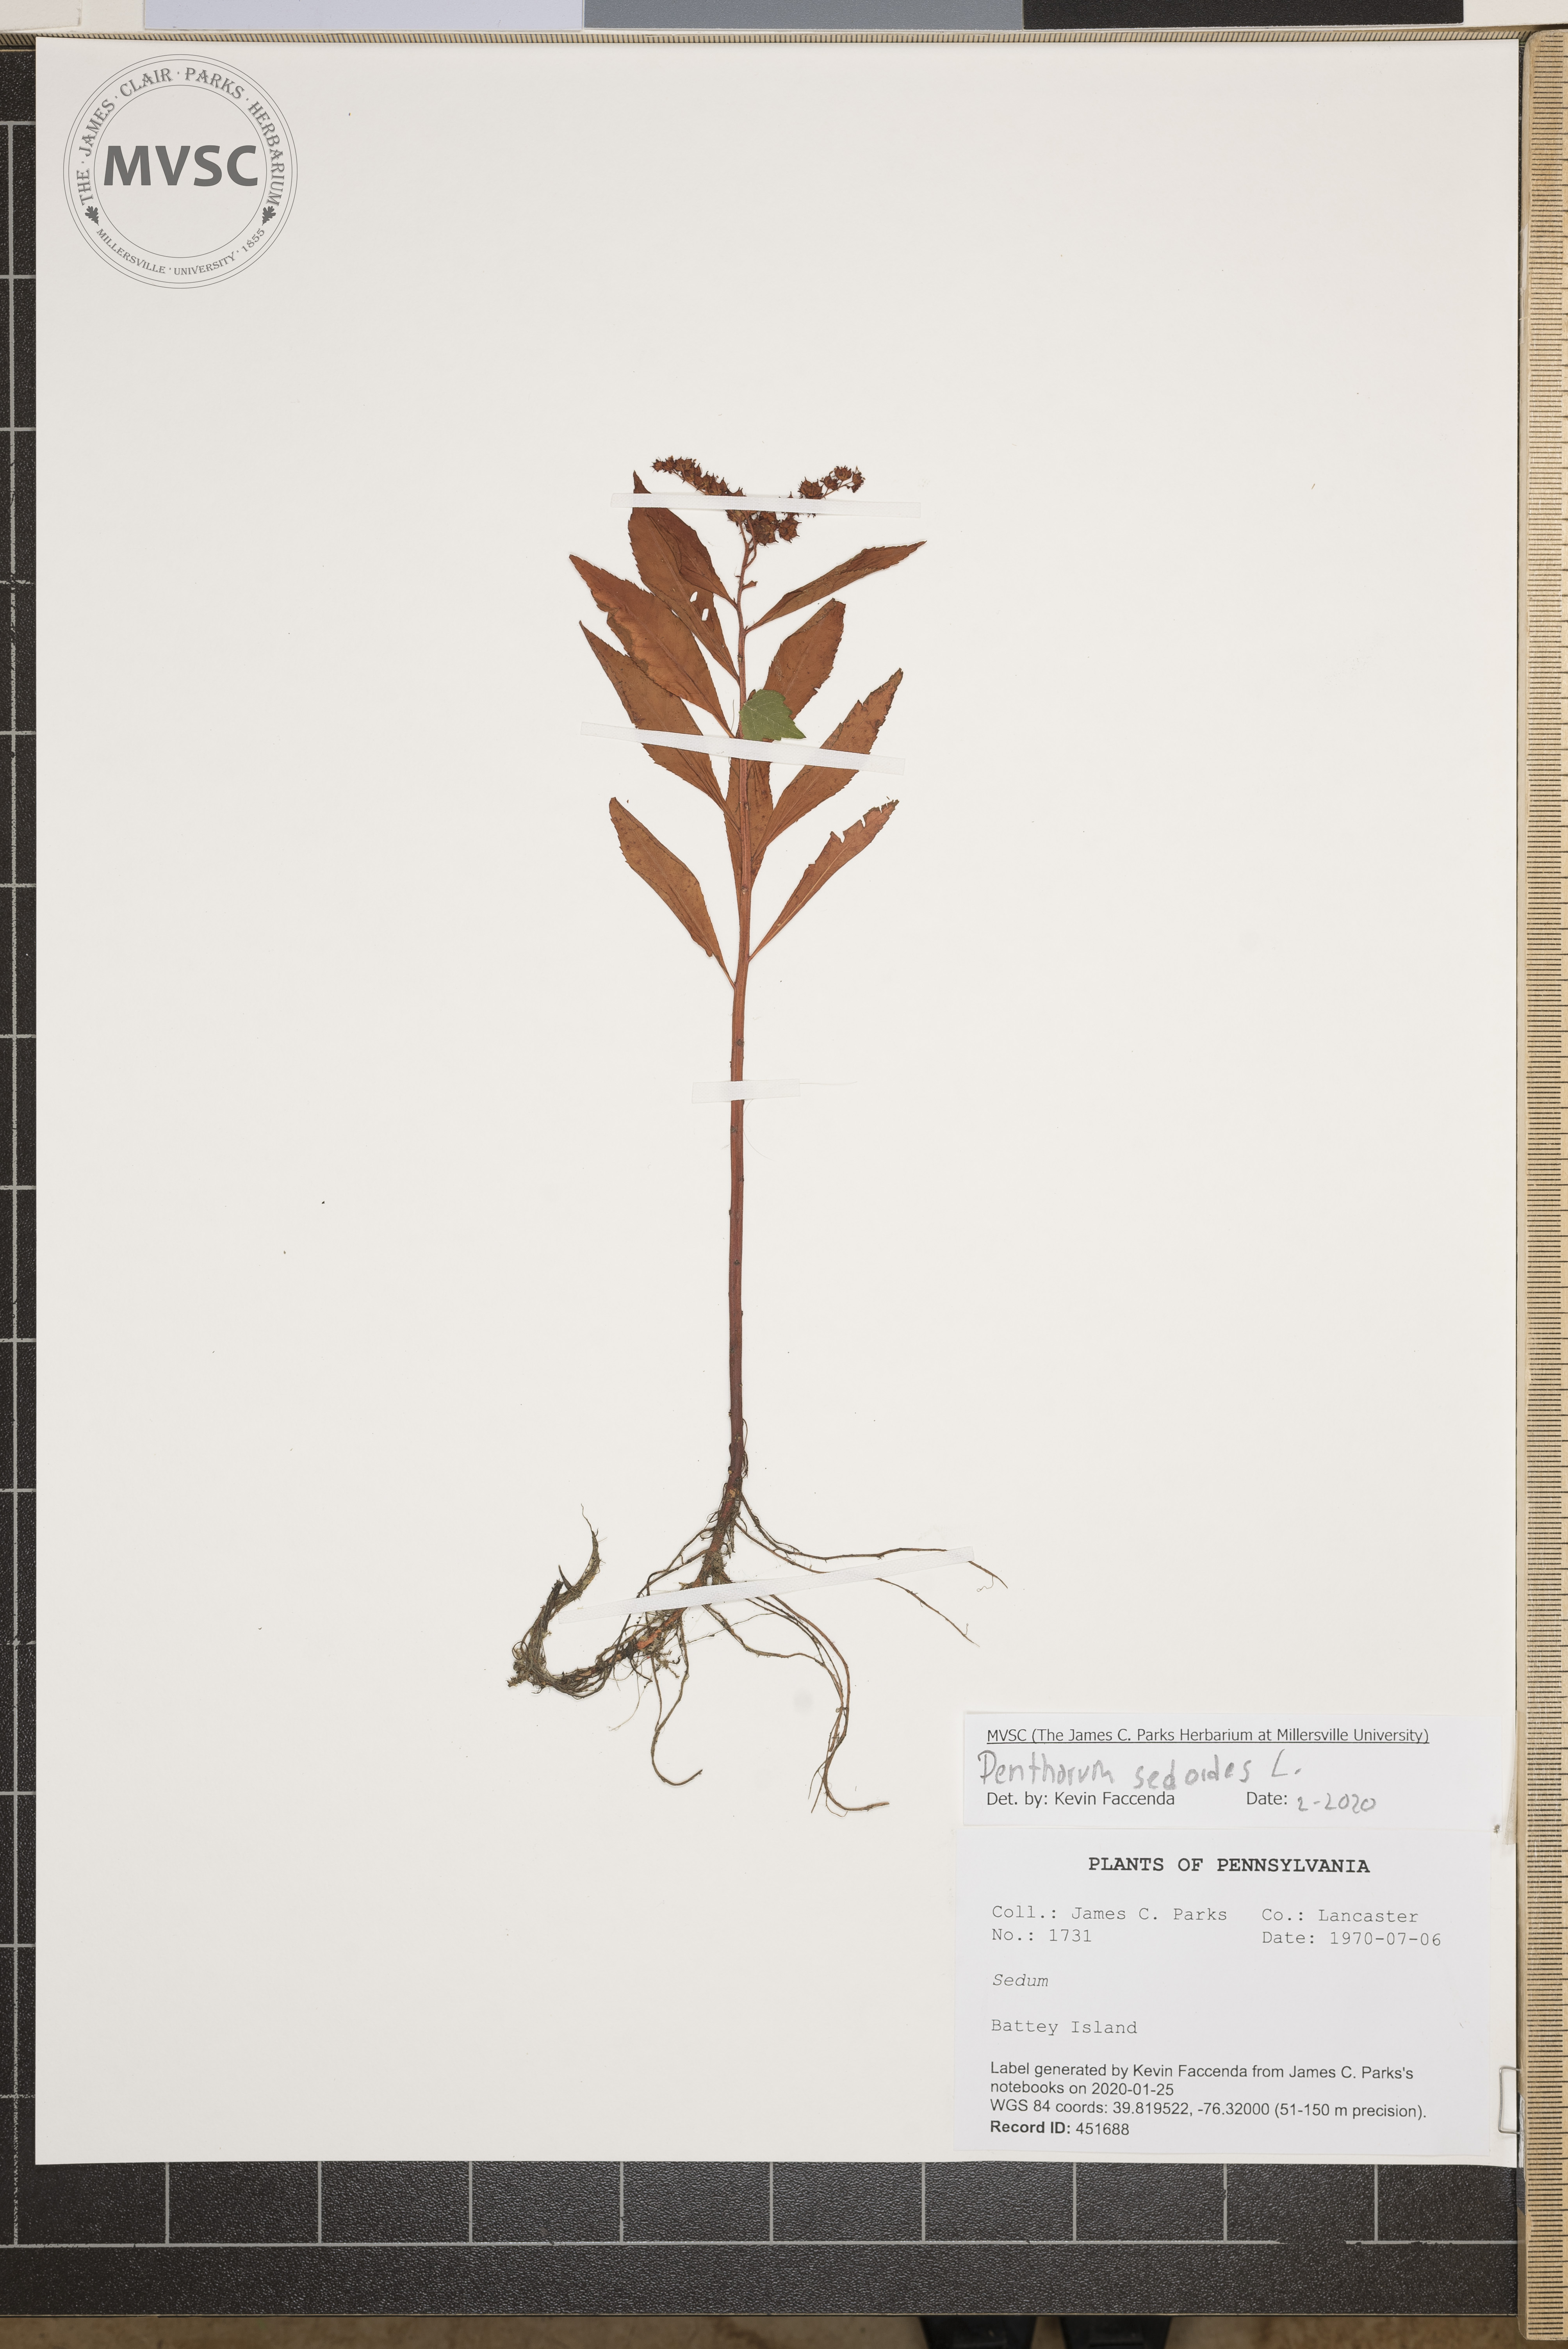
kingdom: Plantae
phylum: Tracheophyta
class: Magnoliopsida
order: Saxifragales
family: Penthoraceae
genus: Penthorum
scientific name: Penthorum sedoides
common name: Ditch stonecrop
